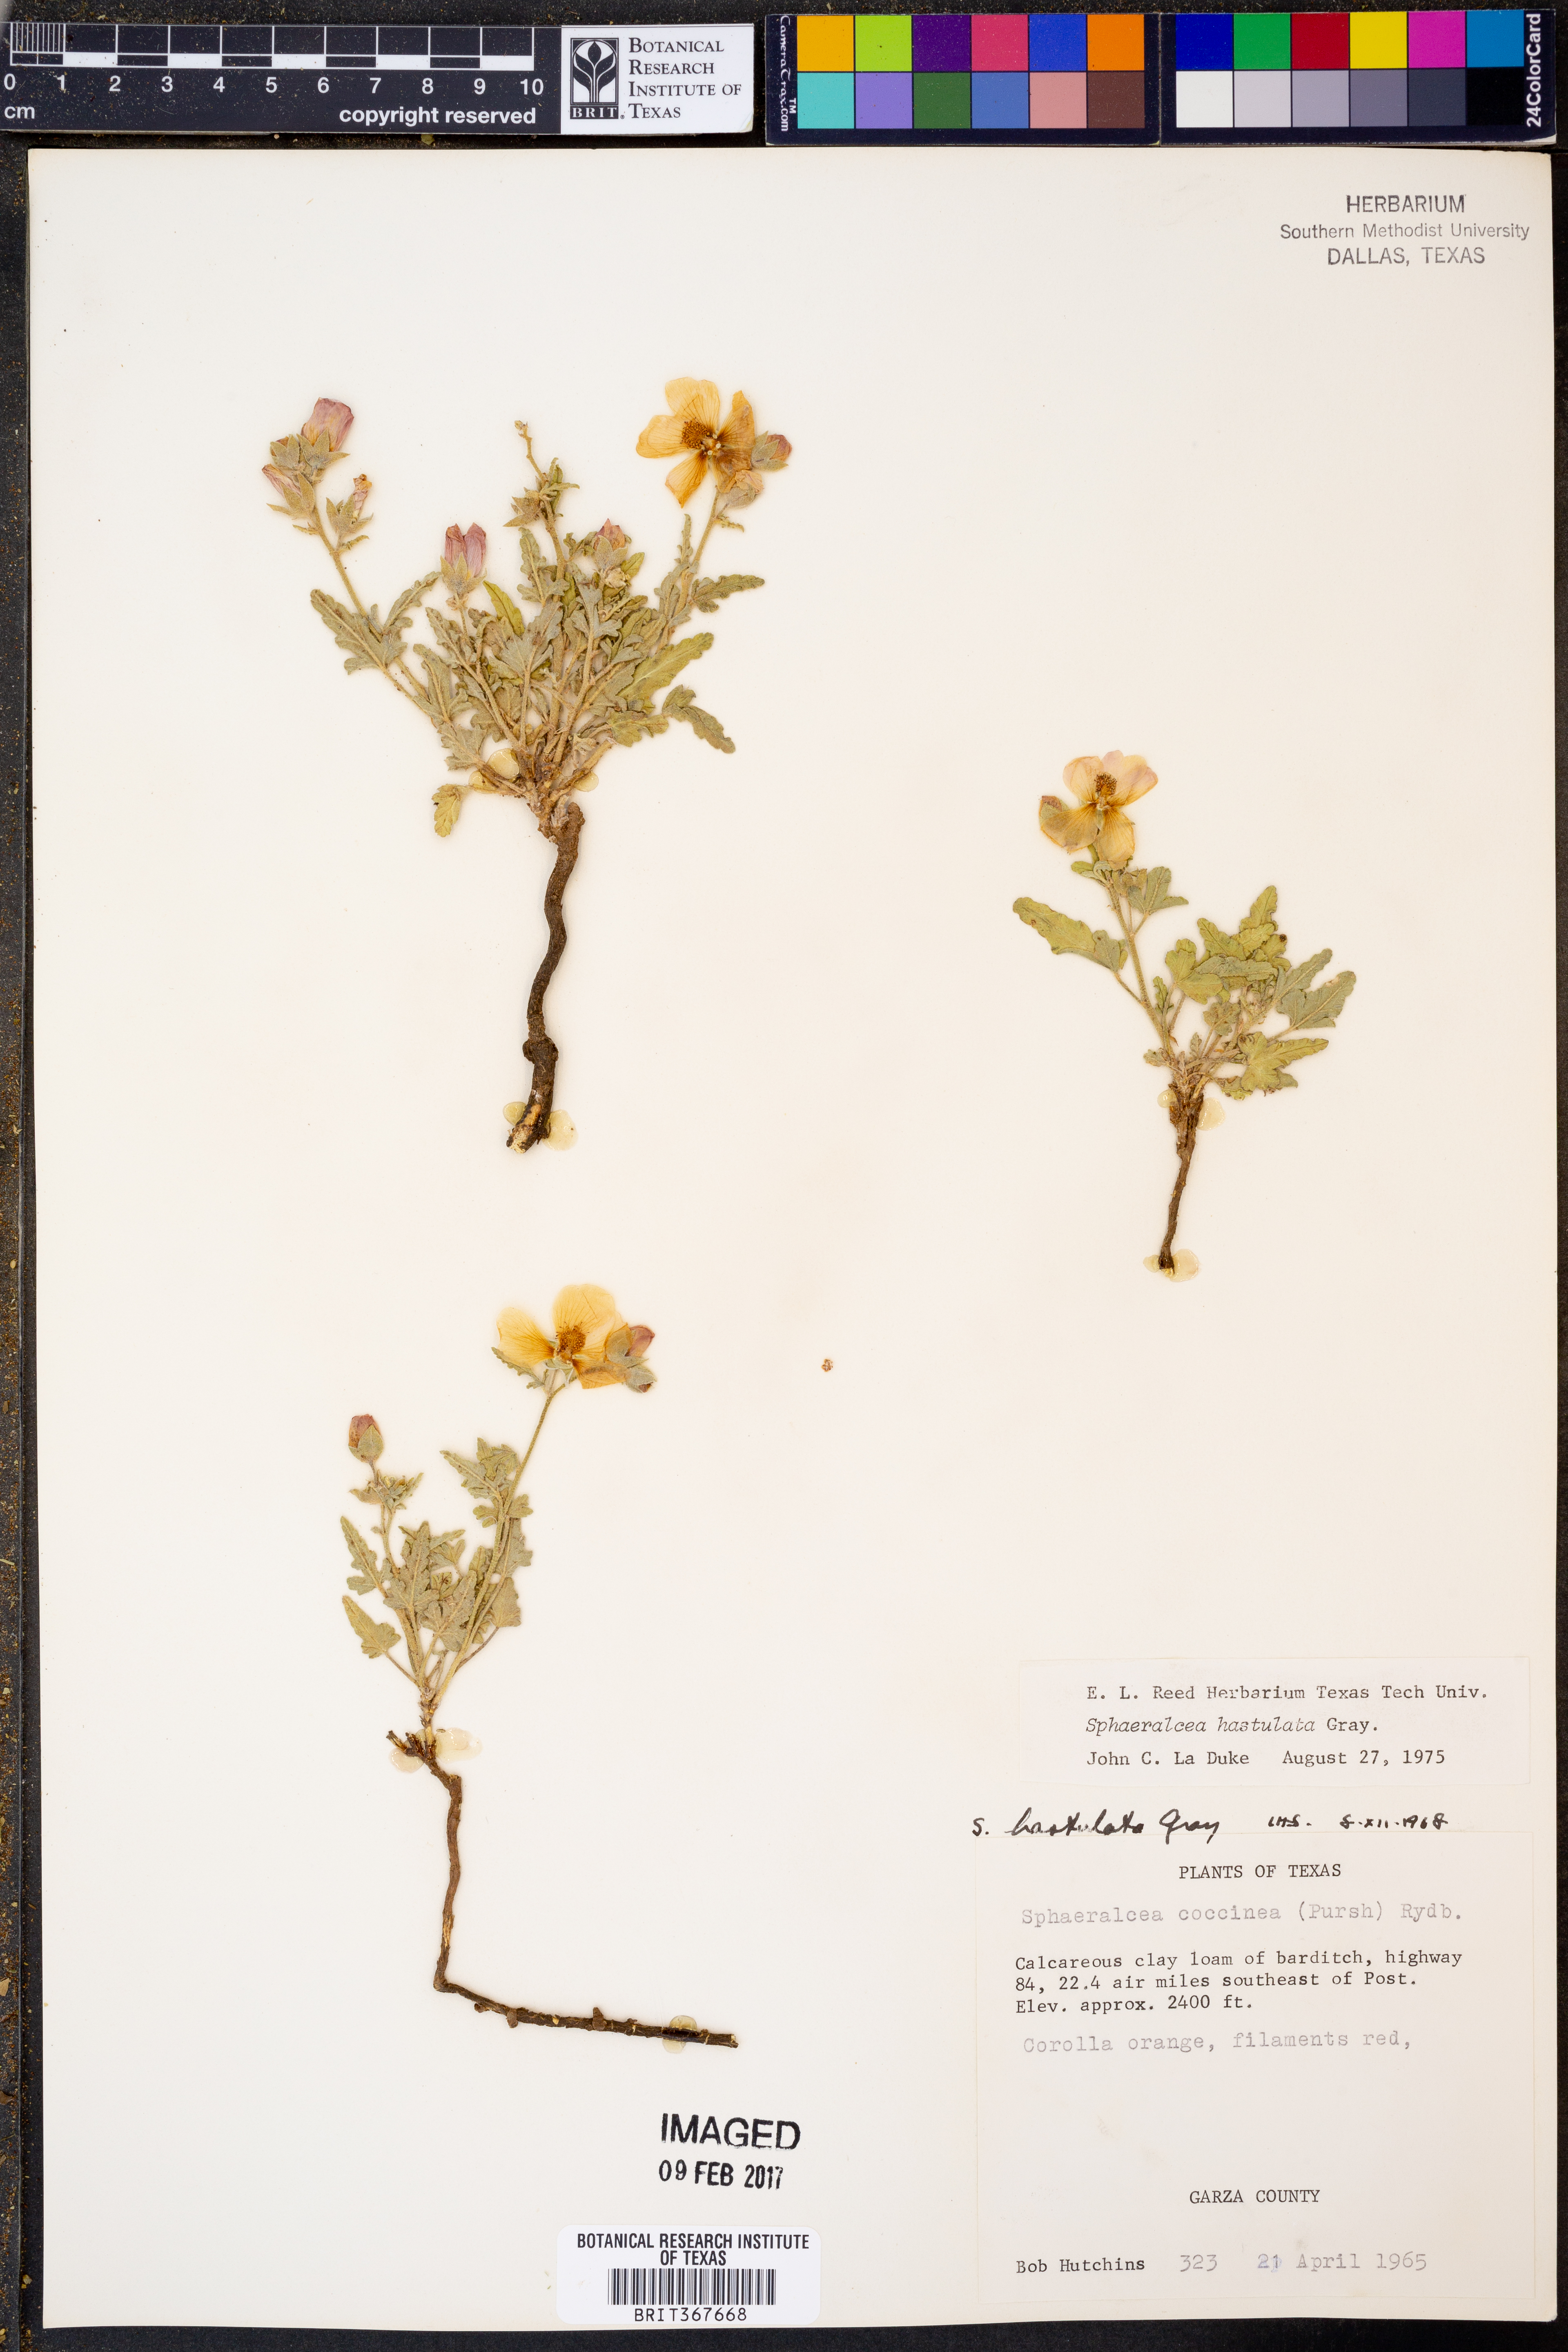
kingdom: Plantae
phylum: Tracheophyta
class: Magnoliopsida
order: Malvales
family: Malvaceae
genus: Sphaeralcea
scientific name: Sphaeralcea hastulata
